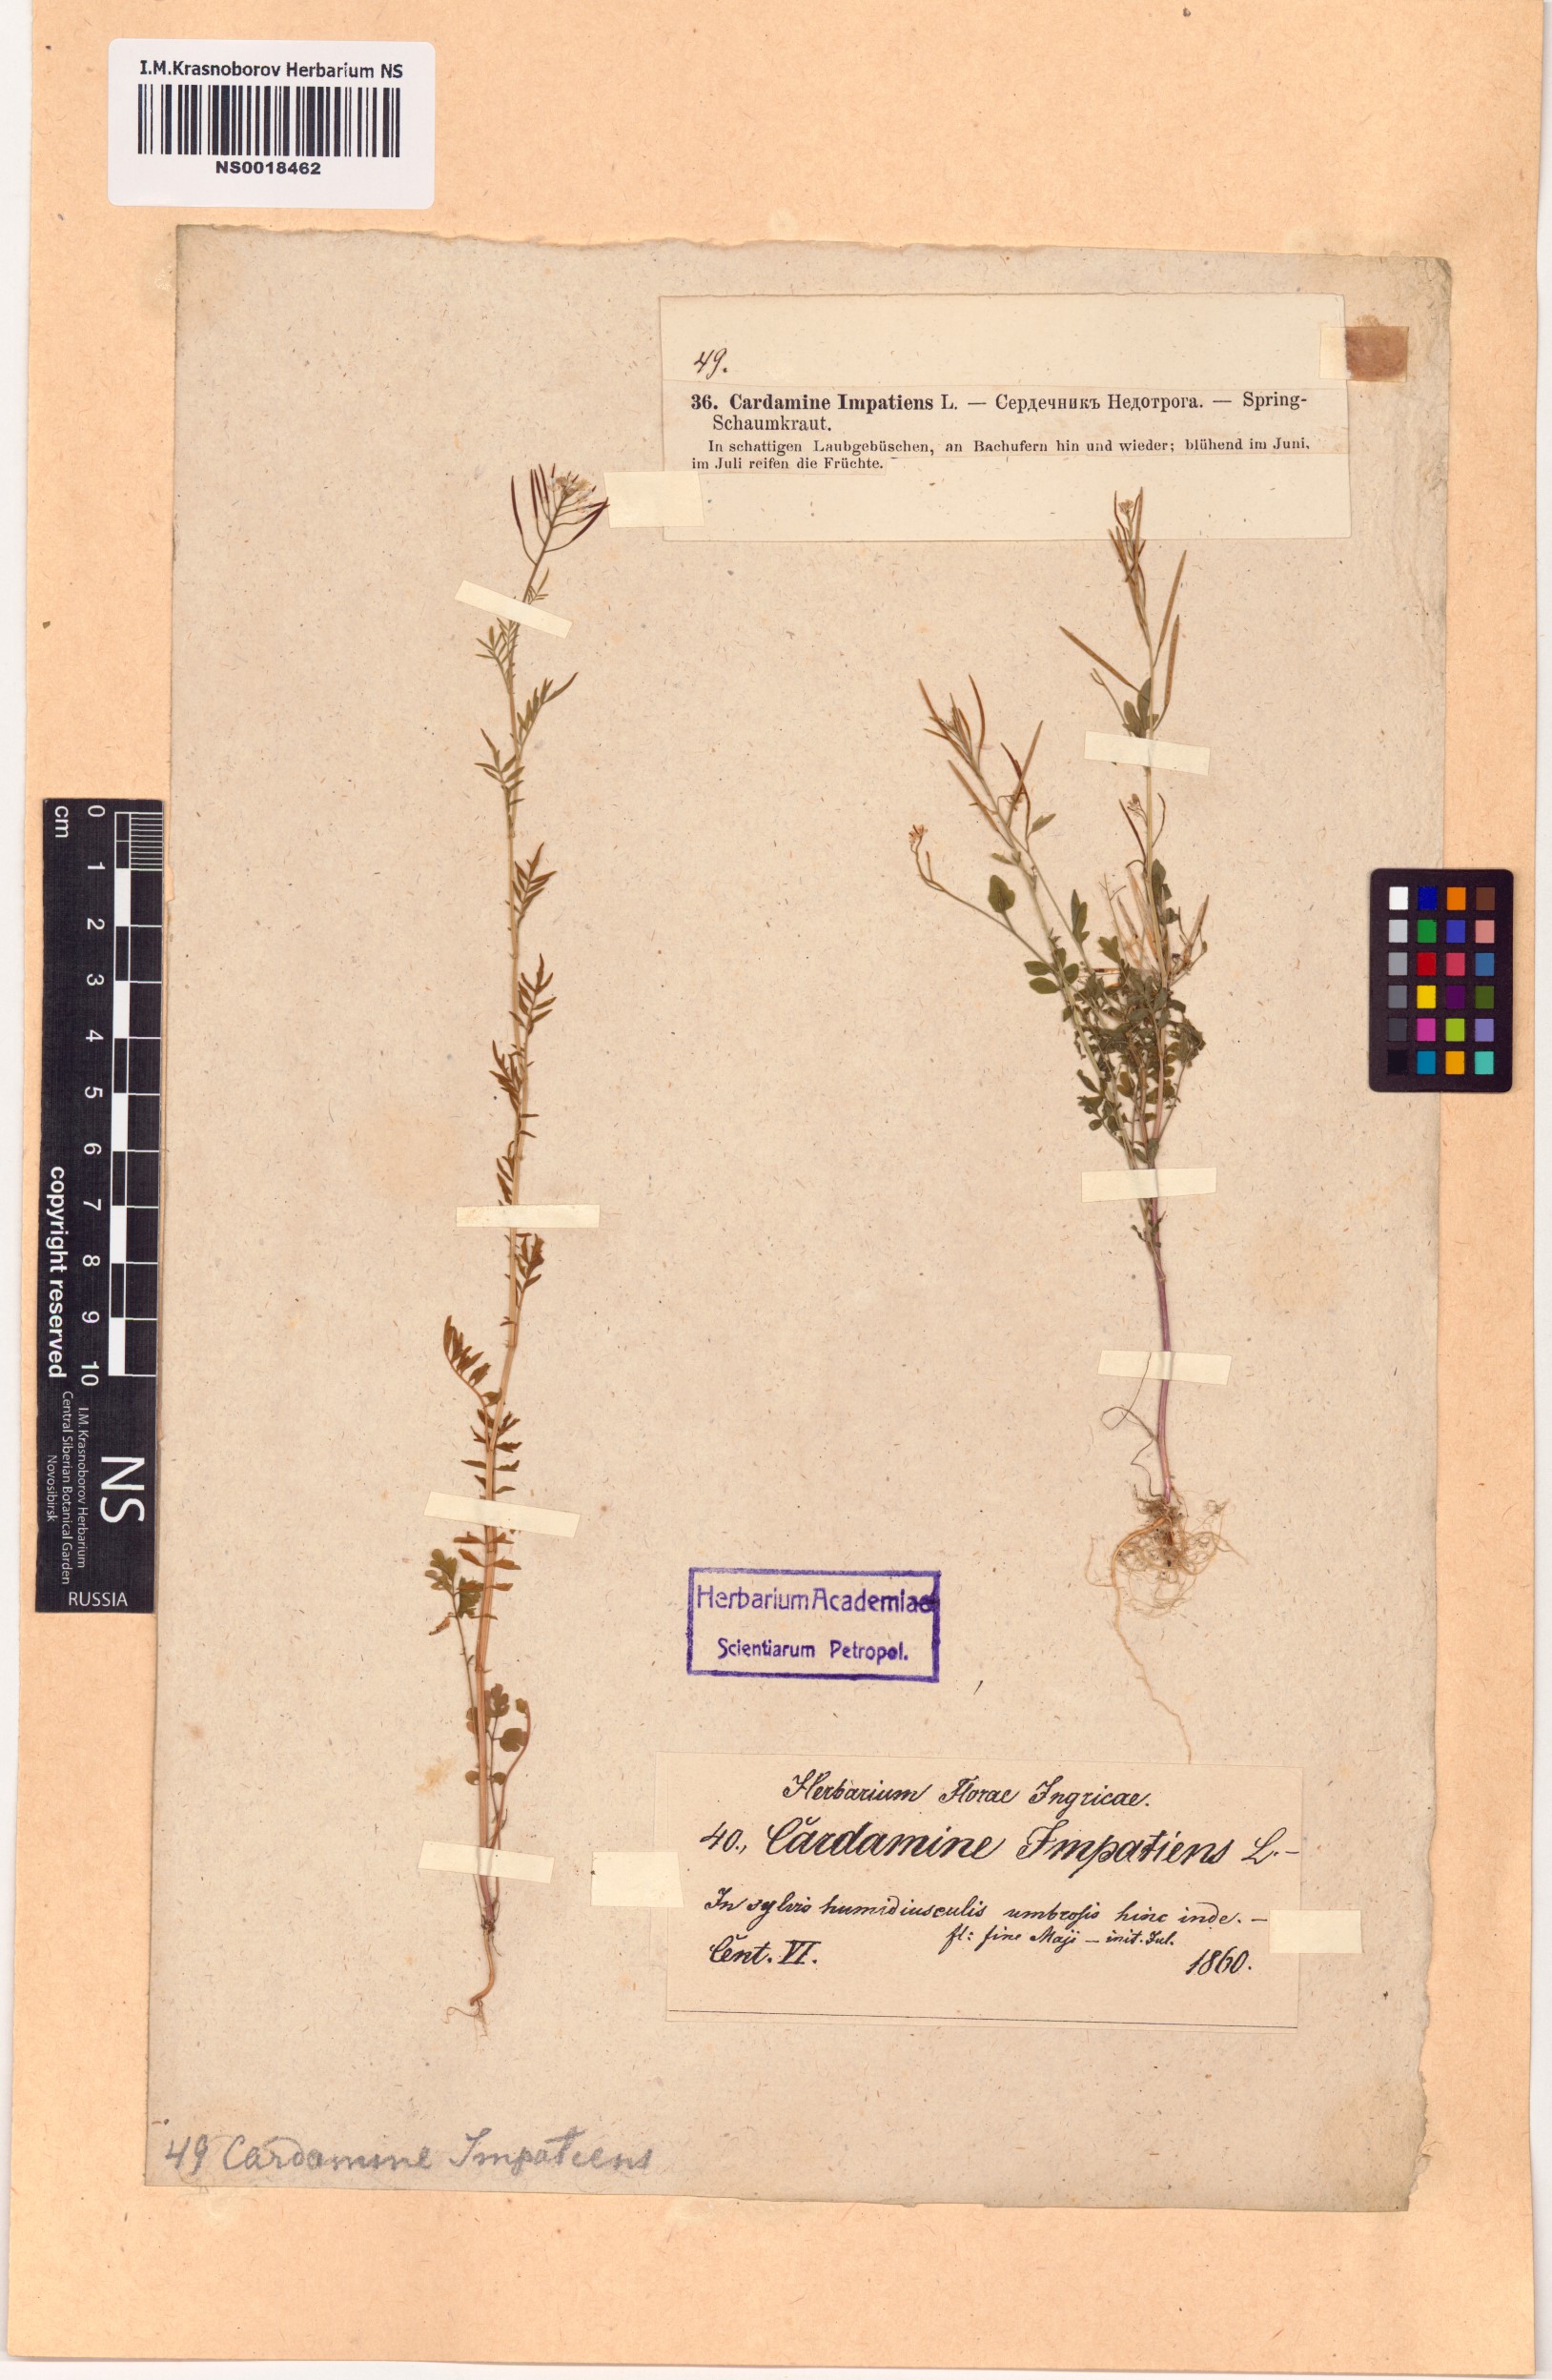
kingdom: Plantae
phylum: Tracheophyta
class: Magnoliopsida
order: Brassicales
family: Brassicaceae
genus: Cardamine
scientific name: Cardamine impatiens
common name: Narrow-leaved bitter-cress
